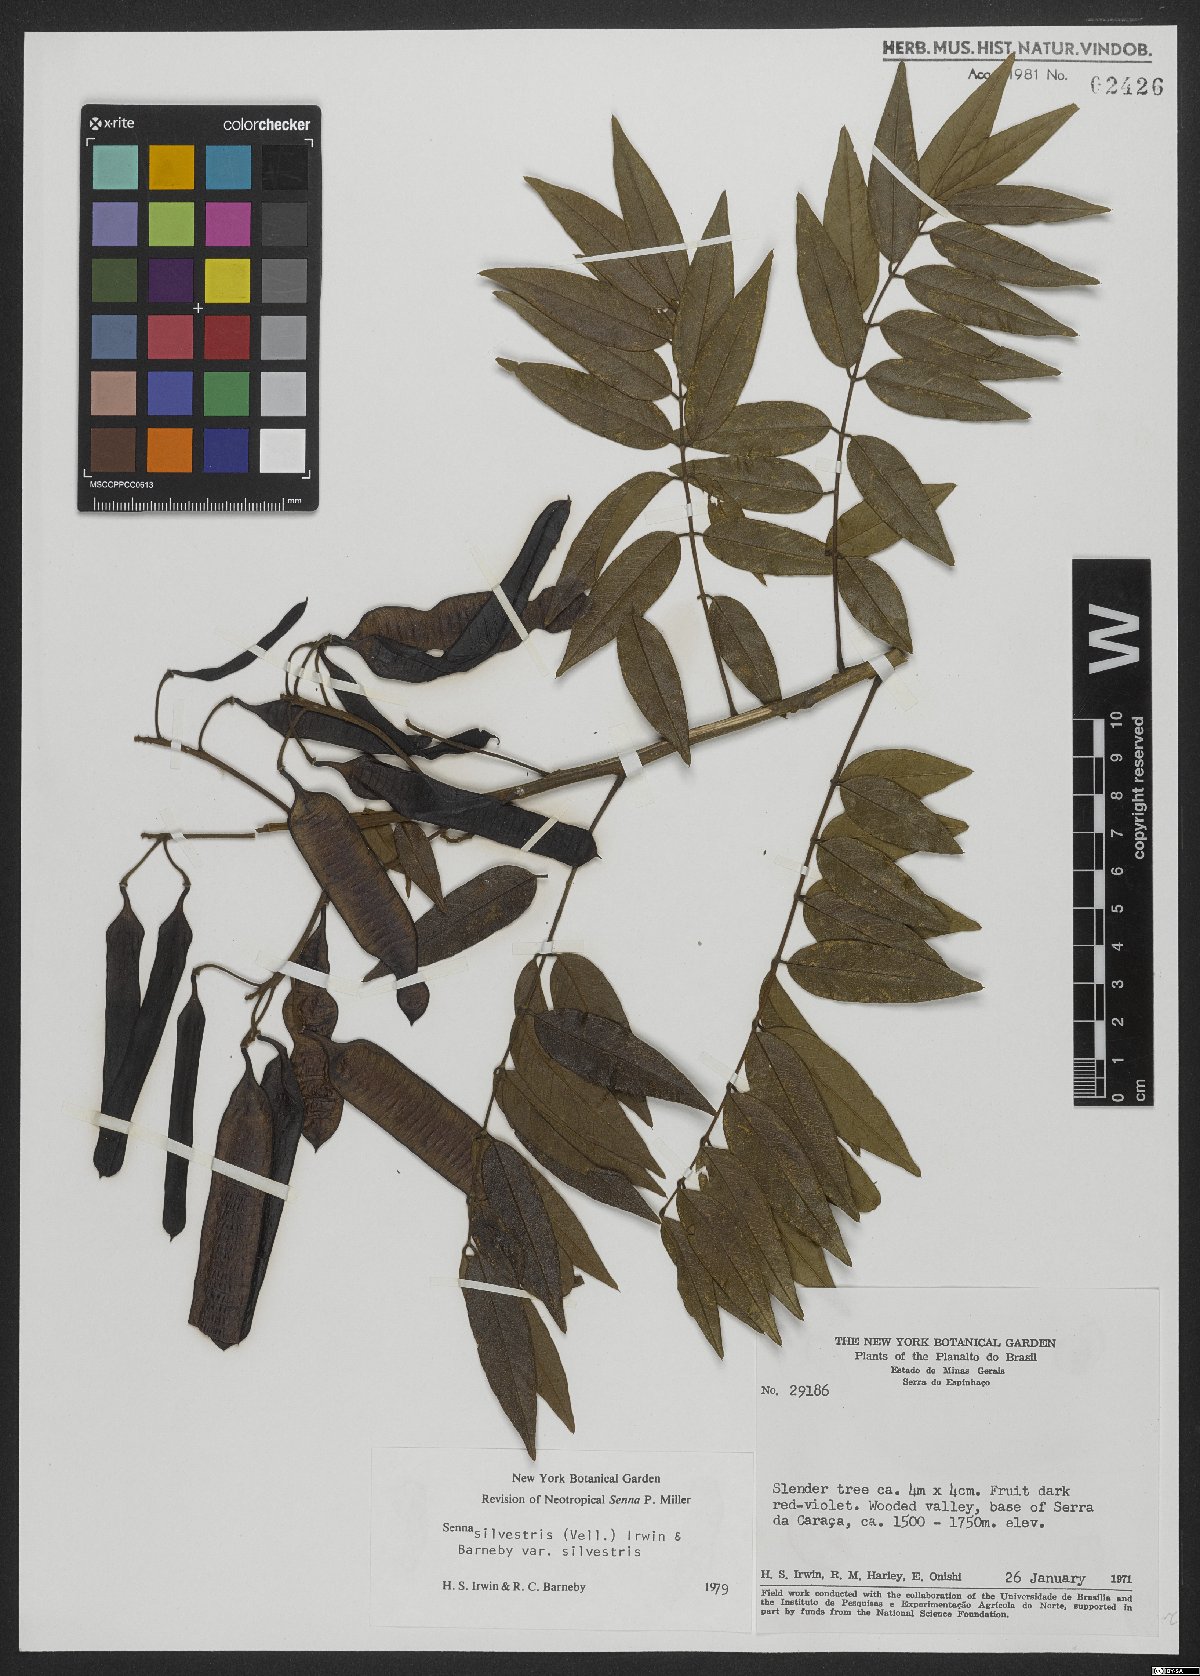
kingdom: Plantae
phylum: Tracheophyta
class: Magnoliopsida
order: Fabales
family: Fabaceae
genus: Senna
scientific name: Senna silvestris
